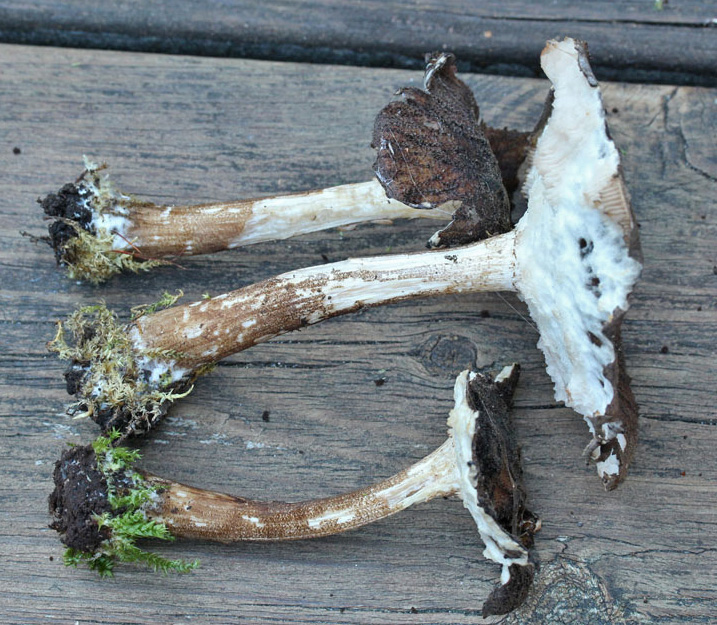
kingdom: Fungi
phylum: Basidiomycota
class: Agaricomycetes
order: Agaricales
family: Pluteaceae
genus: Pluteus
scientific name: Pluteus umbrosus
